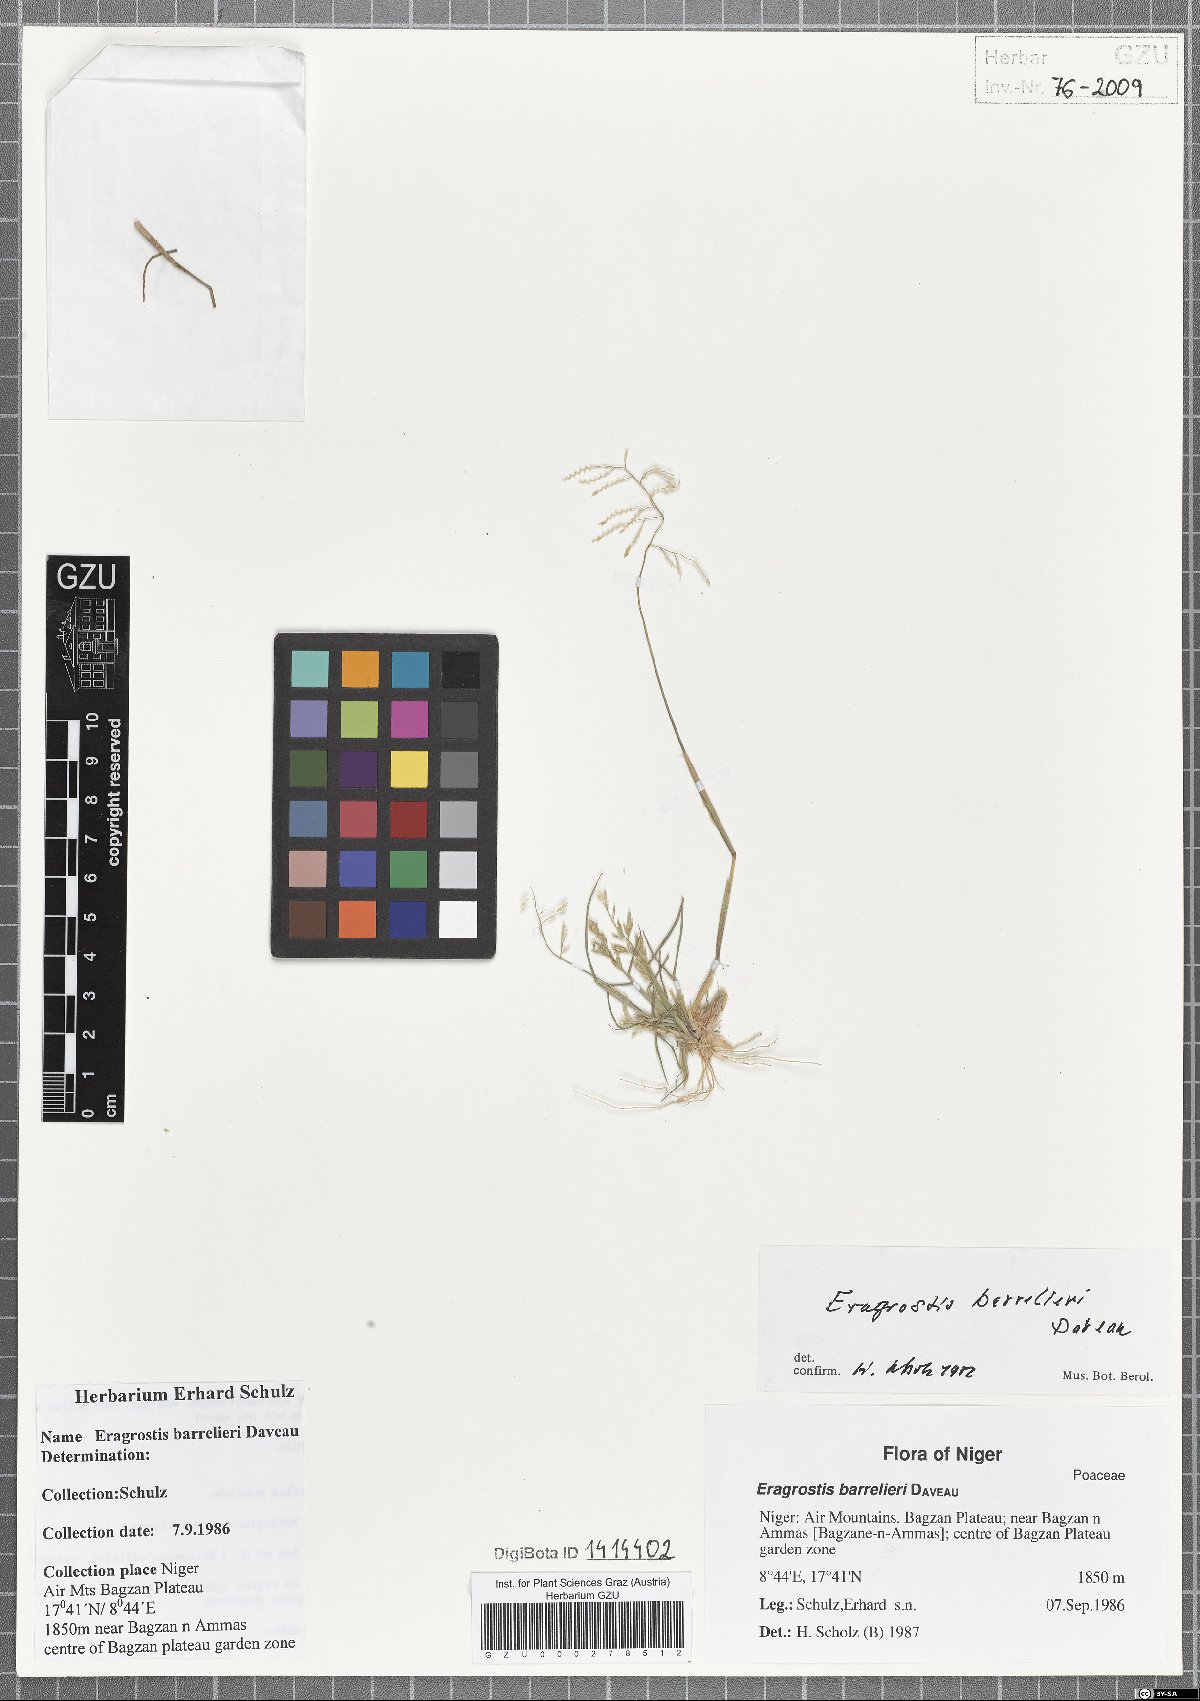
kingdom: Plantae
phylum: Tracheophyta
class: Liliopsida
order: Poales
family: Poaceae
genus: Eragrostis
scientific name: Eragrostis barrelieri
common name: Mediterranean lovegrass
